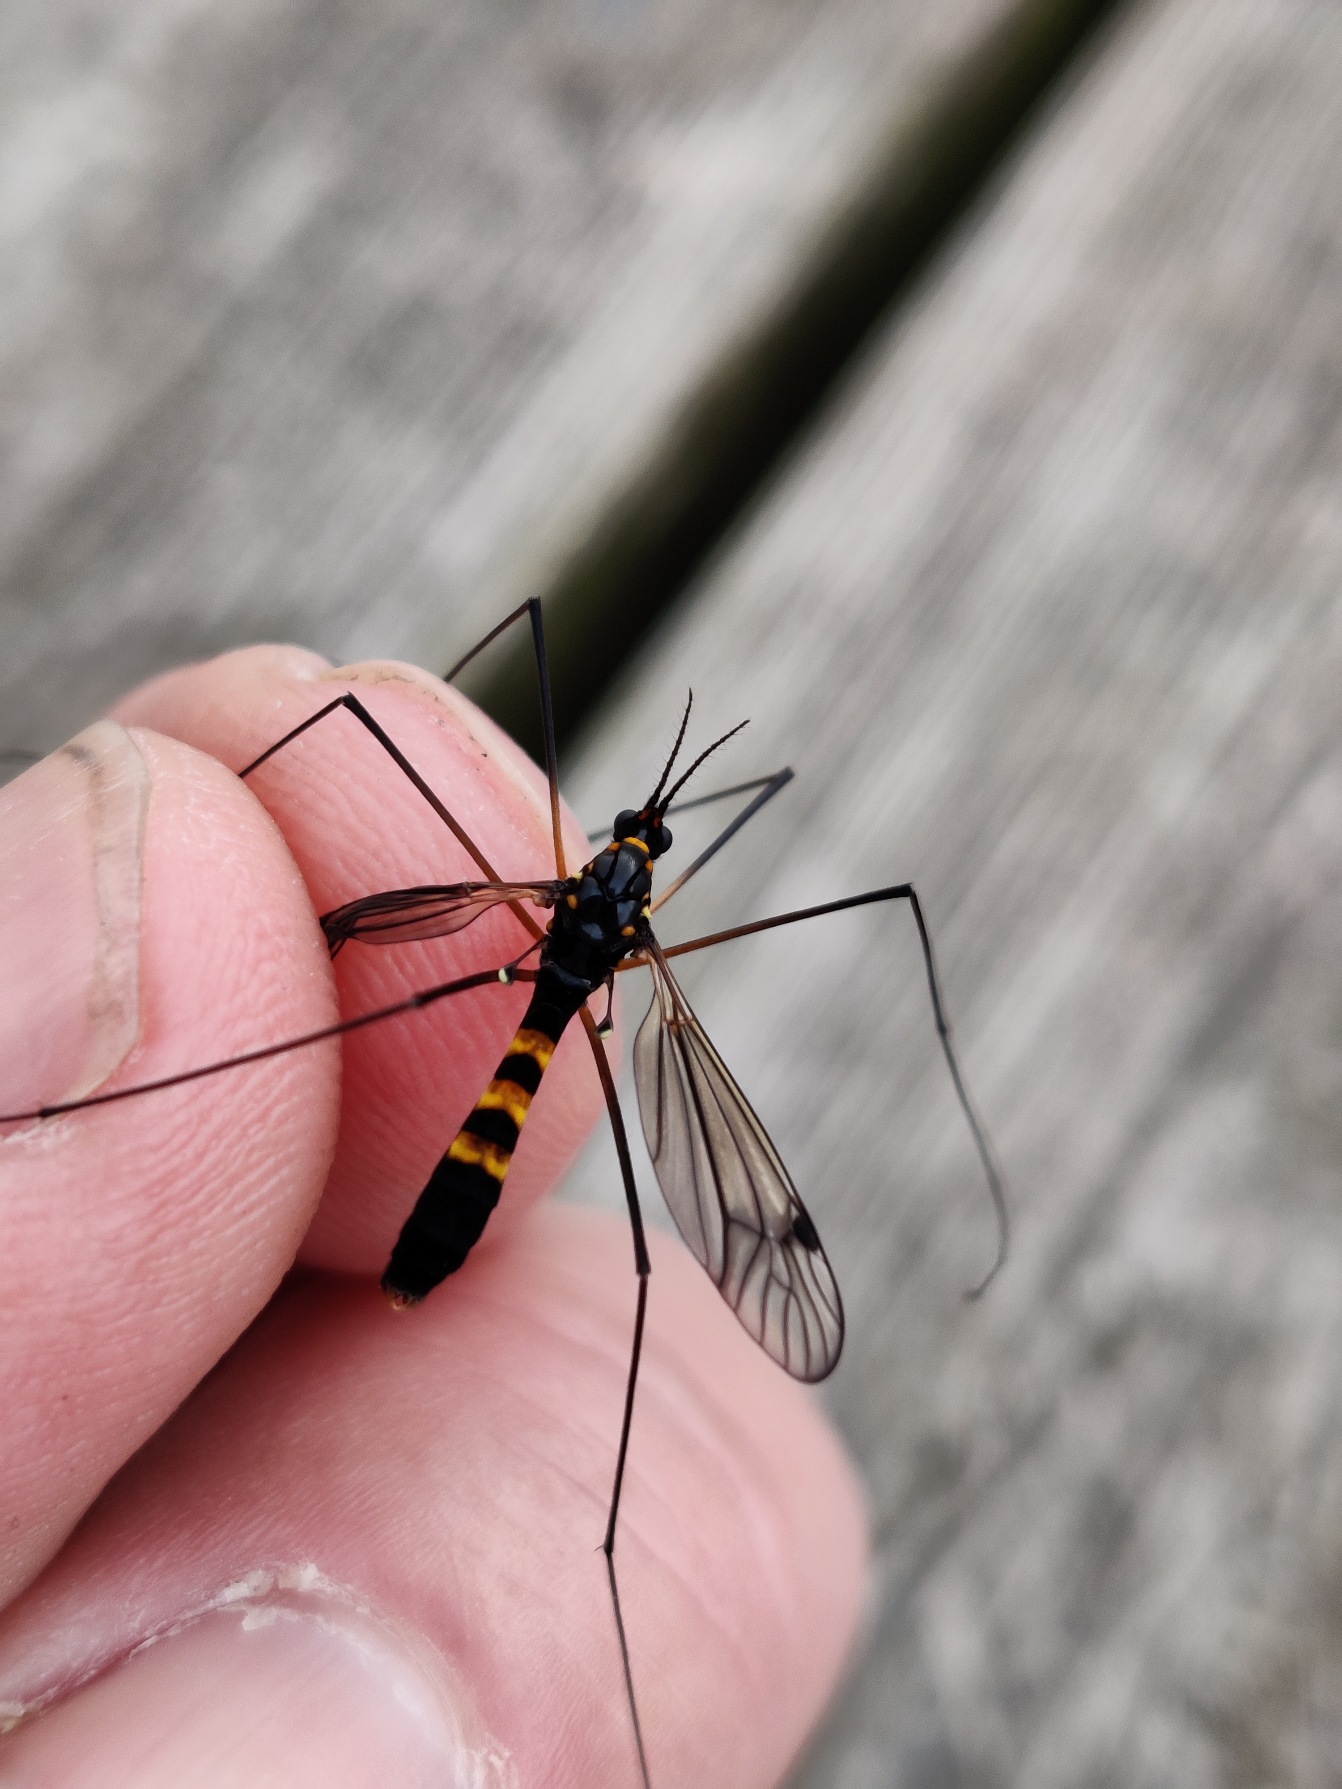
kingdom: Animalia
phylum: Arthropoda
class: Insecta
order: Diptera
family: Tipulidae
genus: Nephrotoma
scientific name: Nephrotoma crocata
